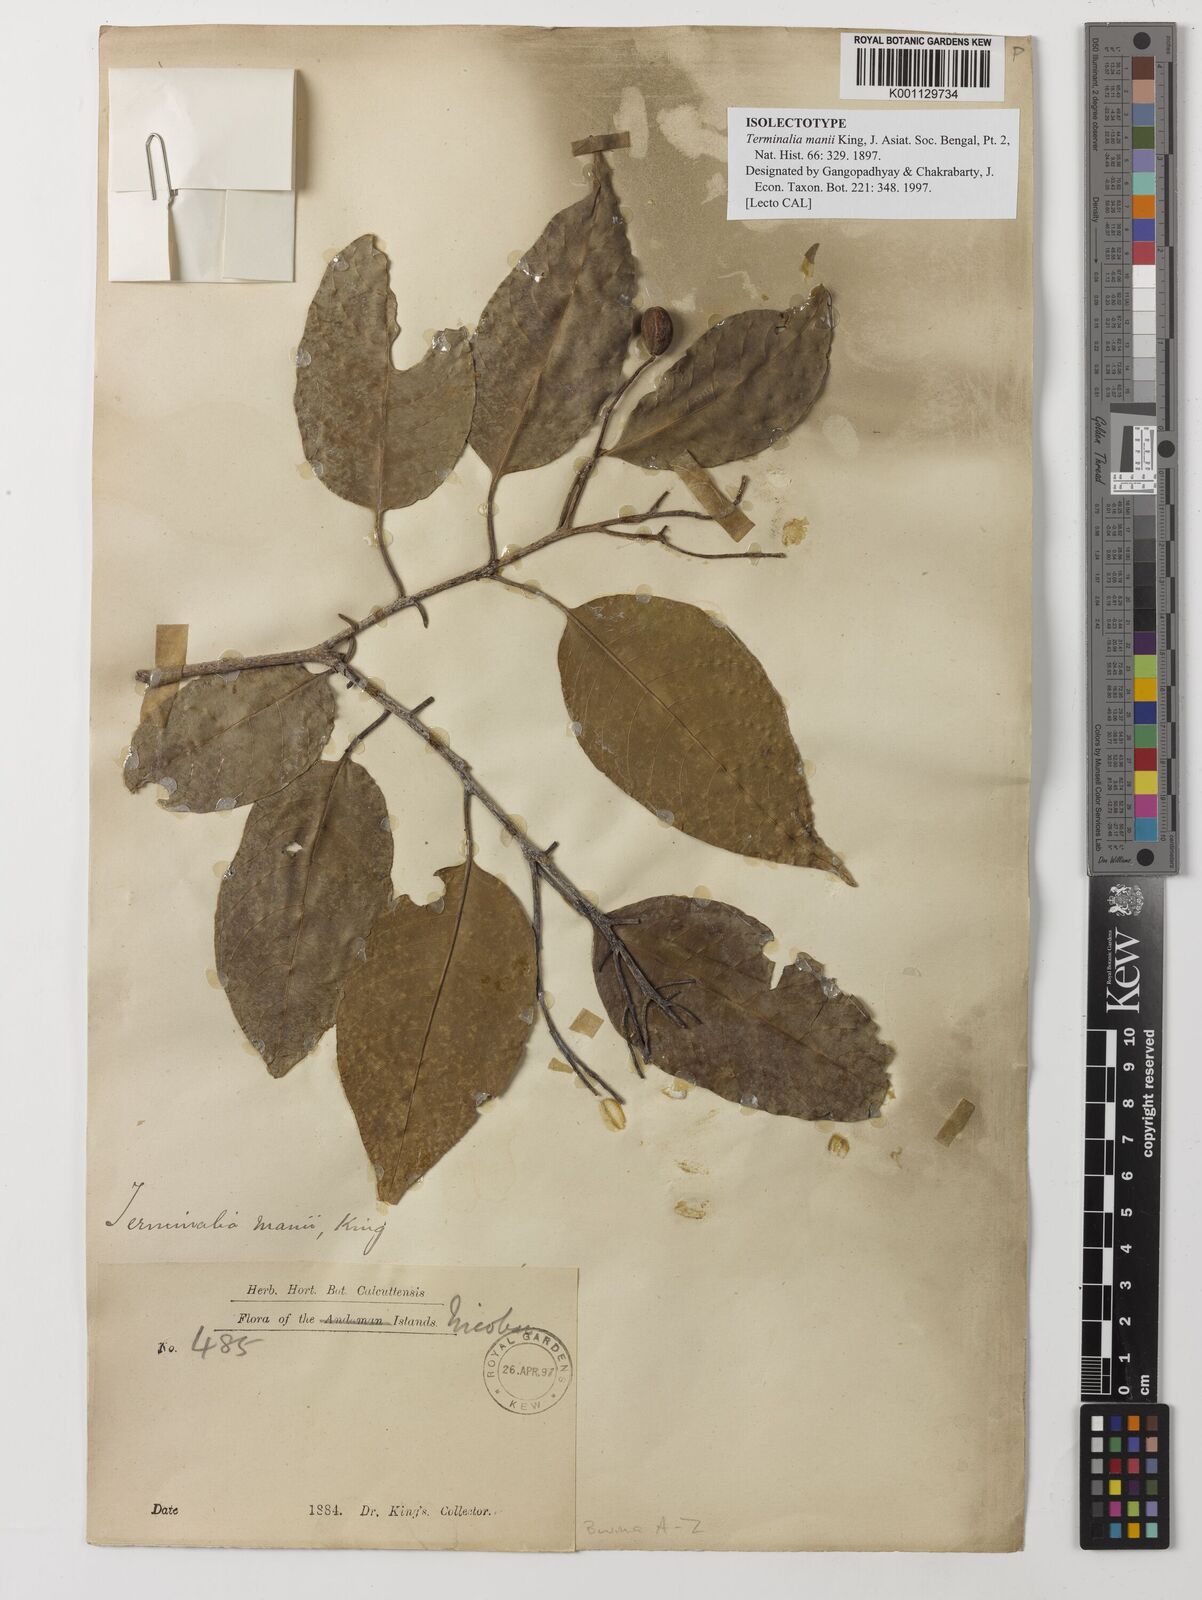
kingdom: Plantae
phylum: Tracheophyta
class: Magnoliopsida
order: Myrtales
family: Combretaceae
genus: Terminalia
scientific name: Terminalia citrina
